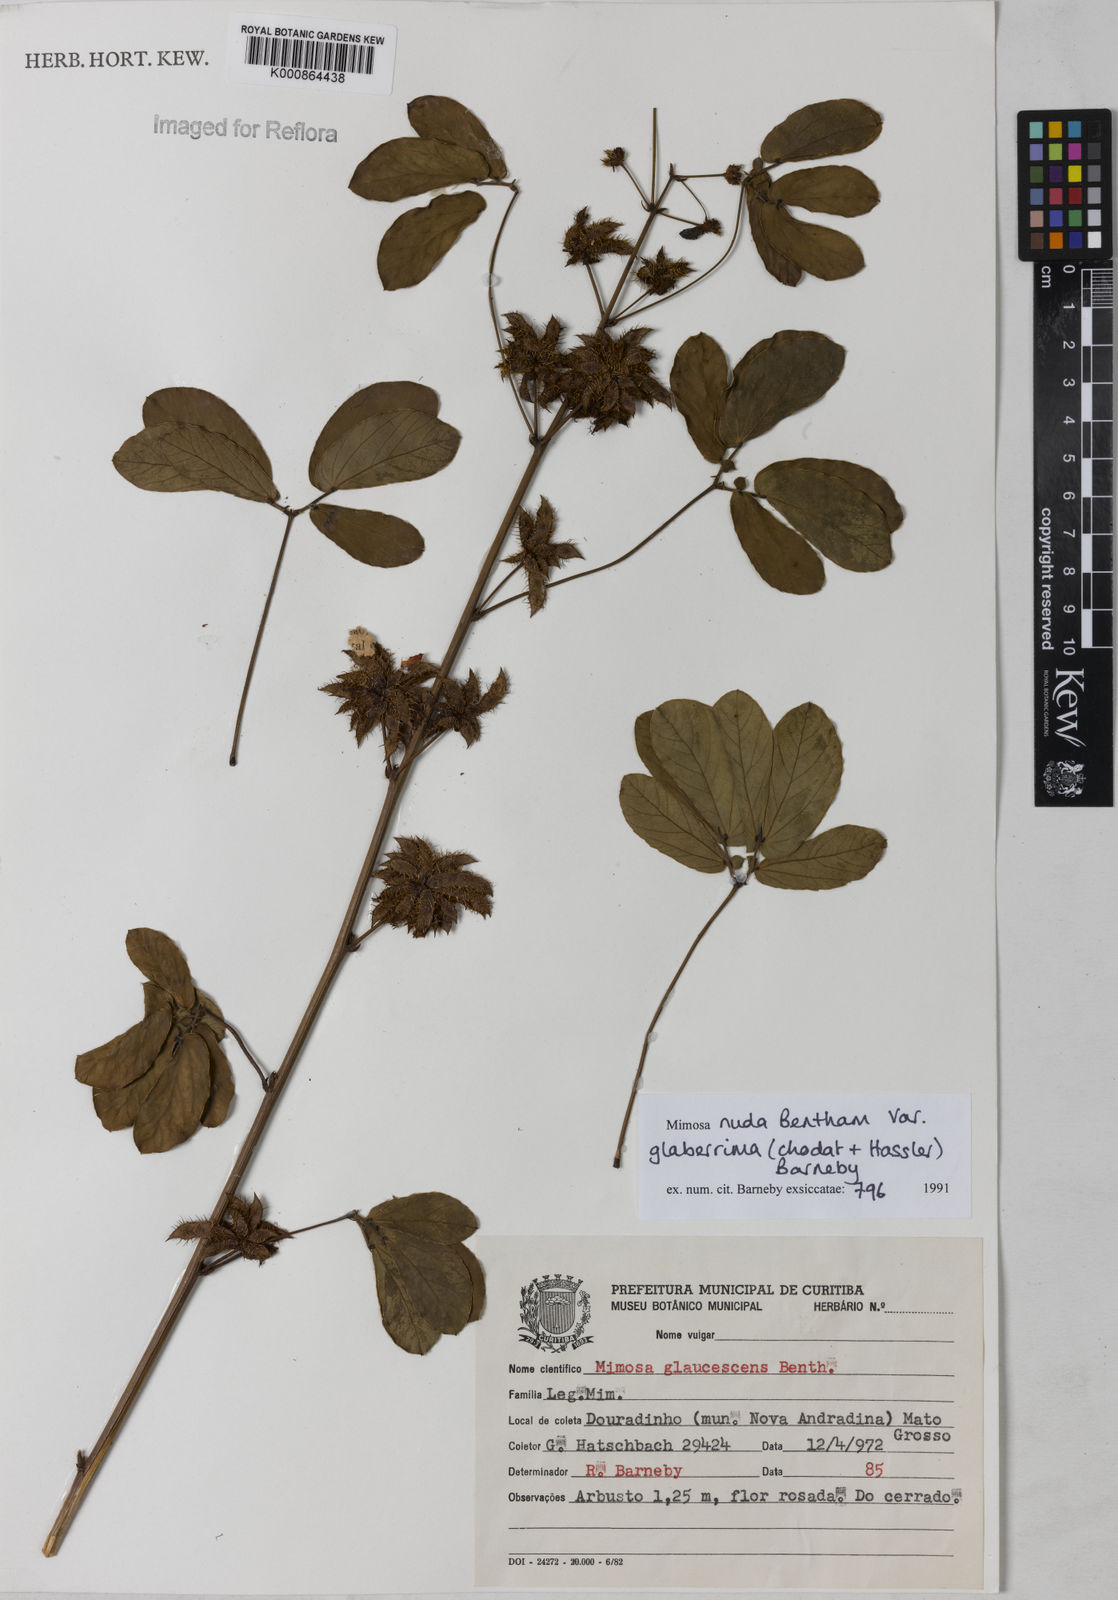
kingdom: Plantae
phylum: Tracheophyta
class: Magnoliopsida
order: Fabales
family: Fabaceae
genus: Mimosa
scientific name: Mimosa debilis
